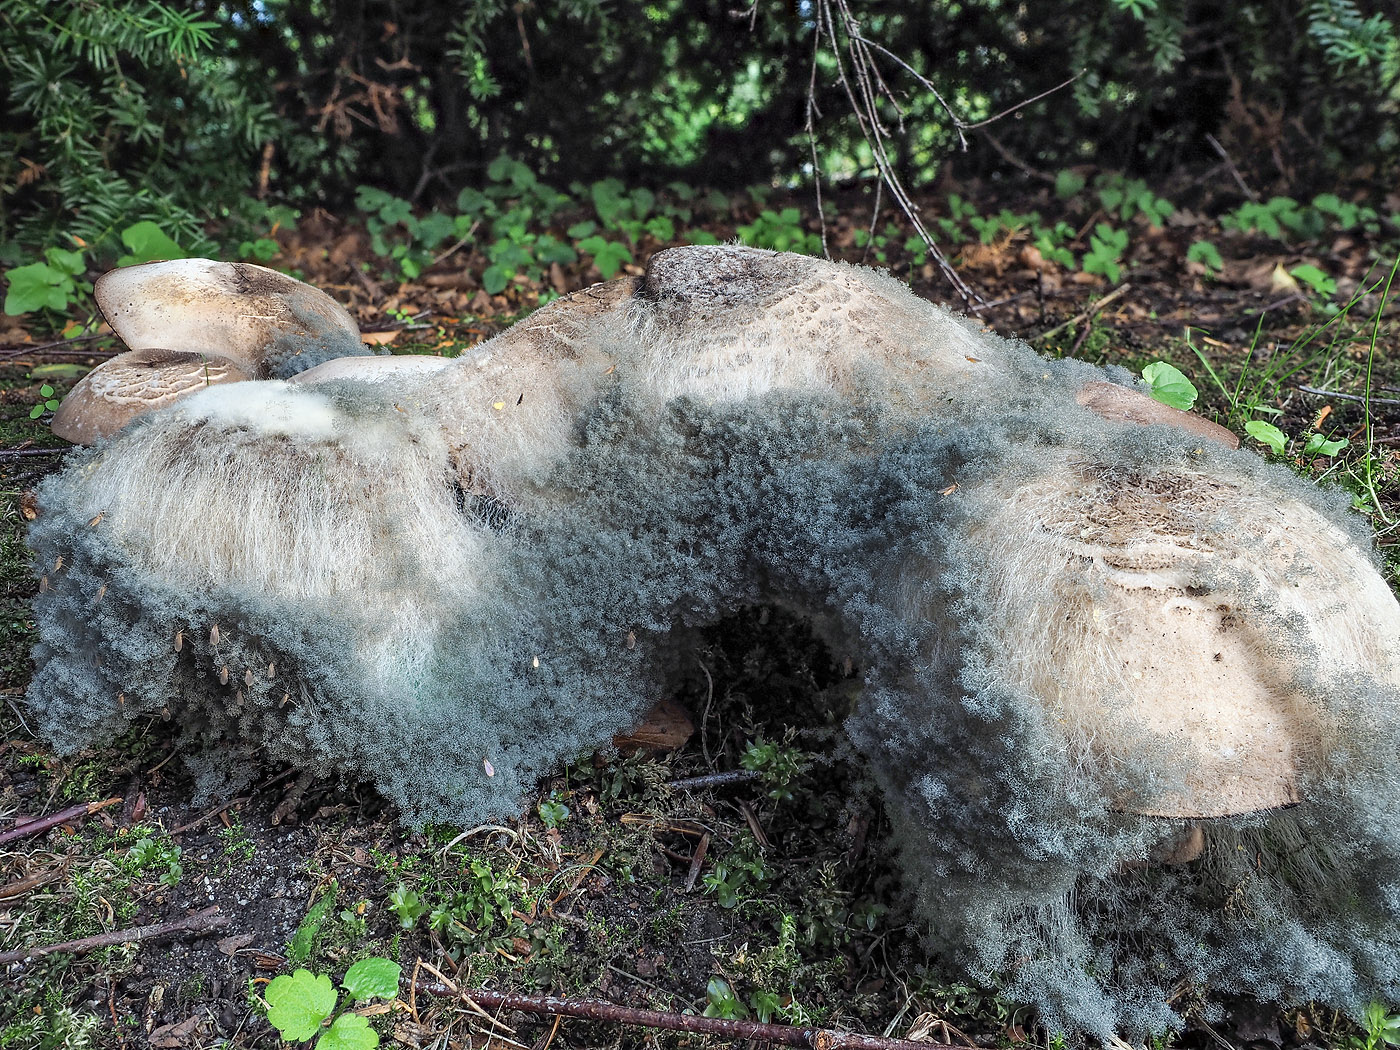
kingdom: Fungi
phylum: Mucoromycota
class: Mucoromycetes
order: Mucorales
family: Rhizopodaceae
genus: Syzygites
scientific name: Syzygites megalocarpus
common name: nissenål
